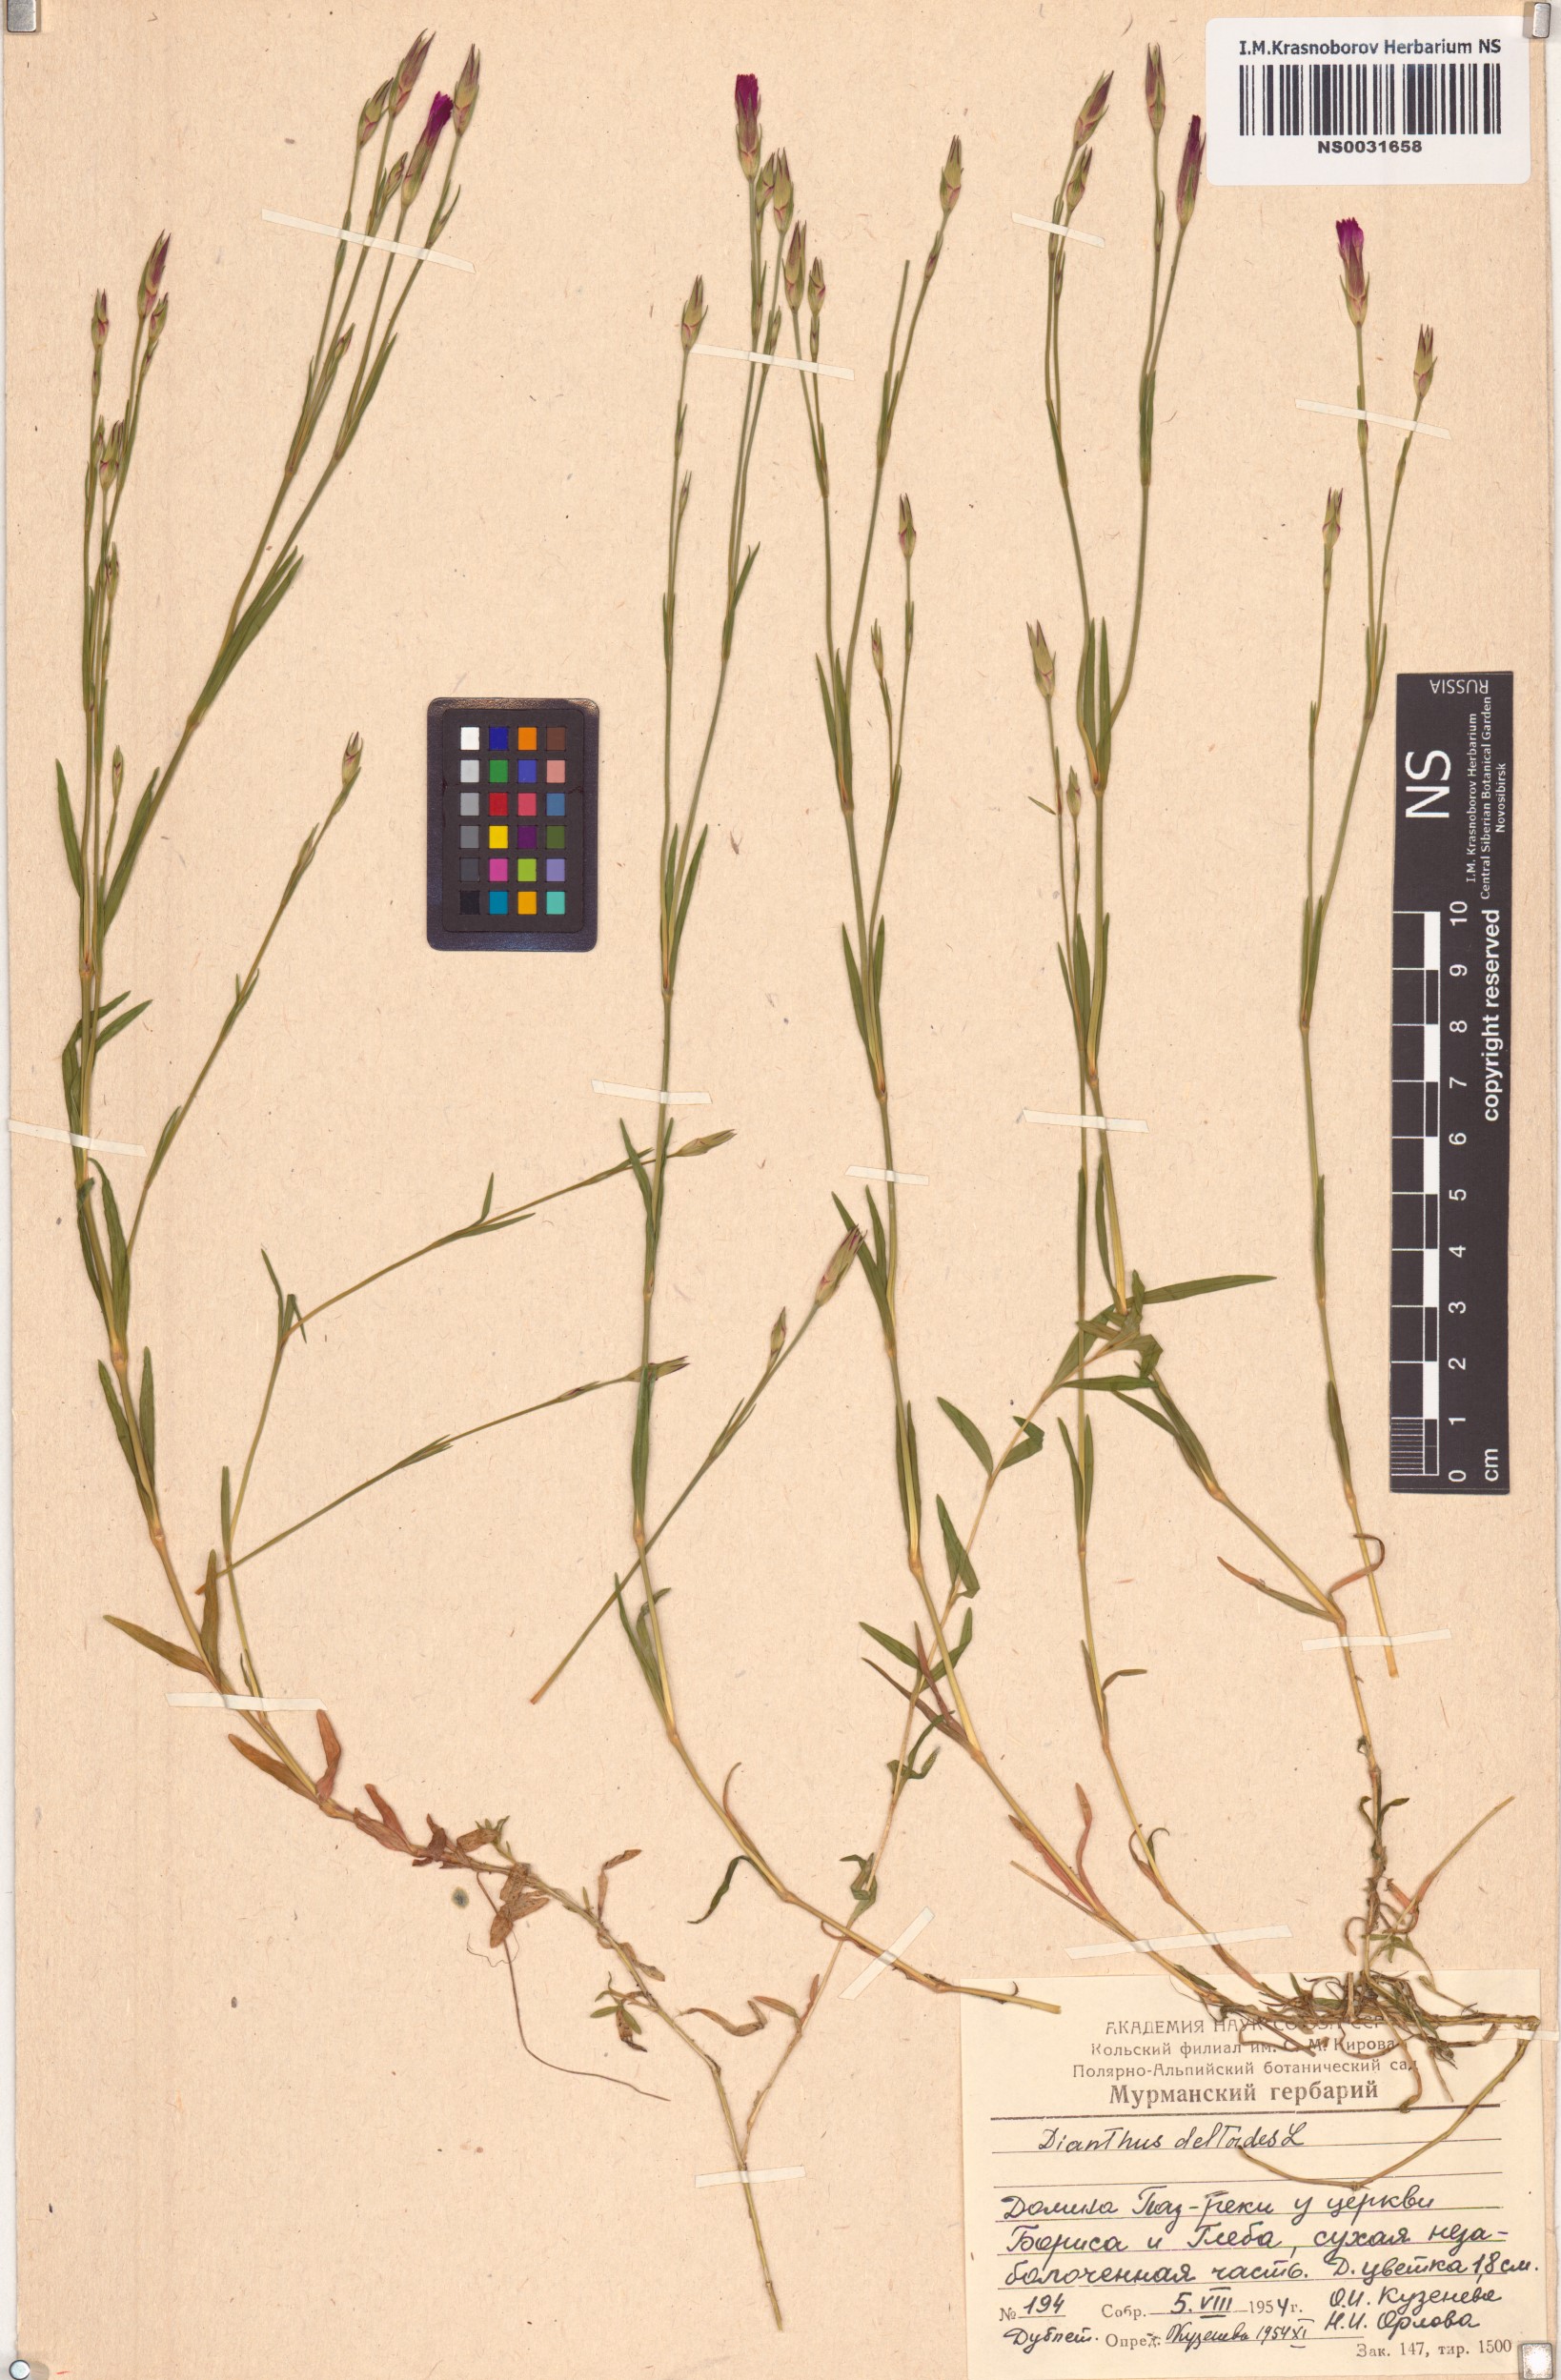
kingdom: Plantae
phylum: Tracheophyta
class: Magnoliopsida
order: Caryophyllales
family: Caryophyllaceae
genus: Dianthus
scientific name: Dianthus deltoides
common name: Maiden pink
